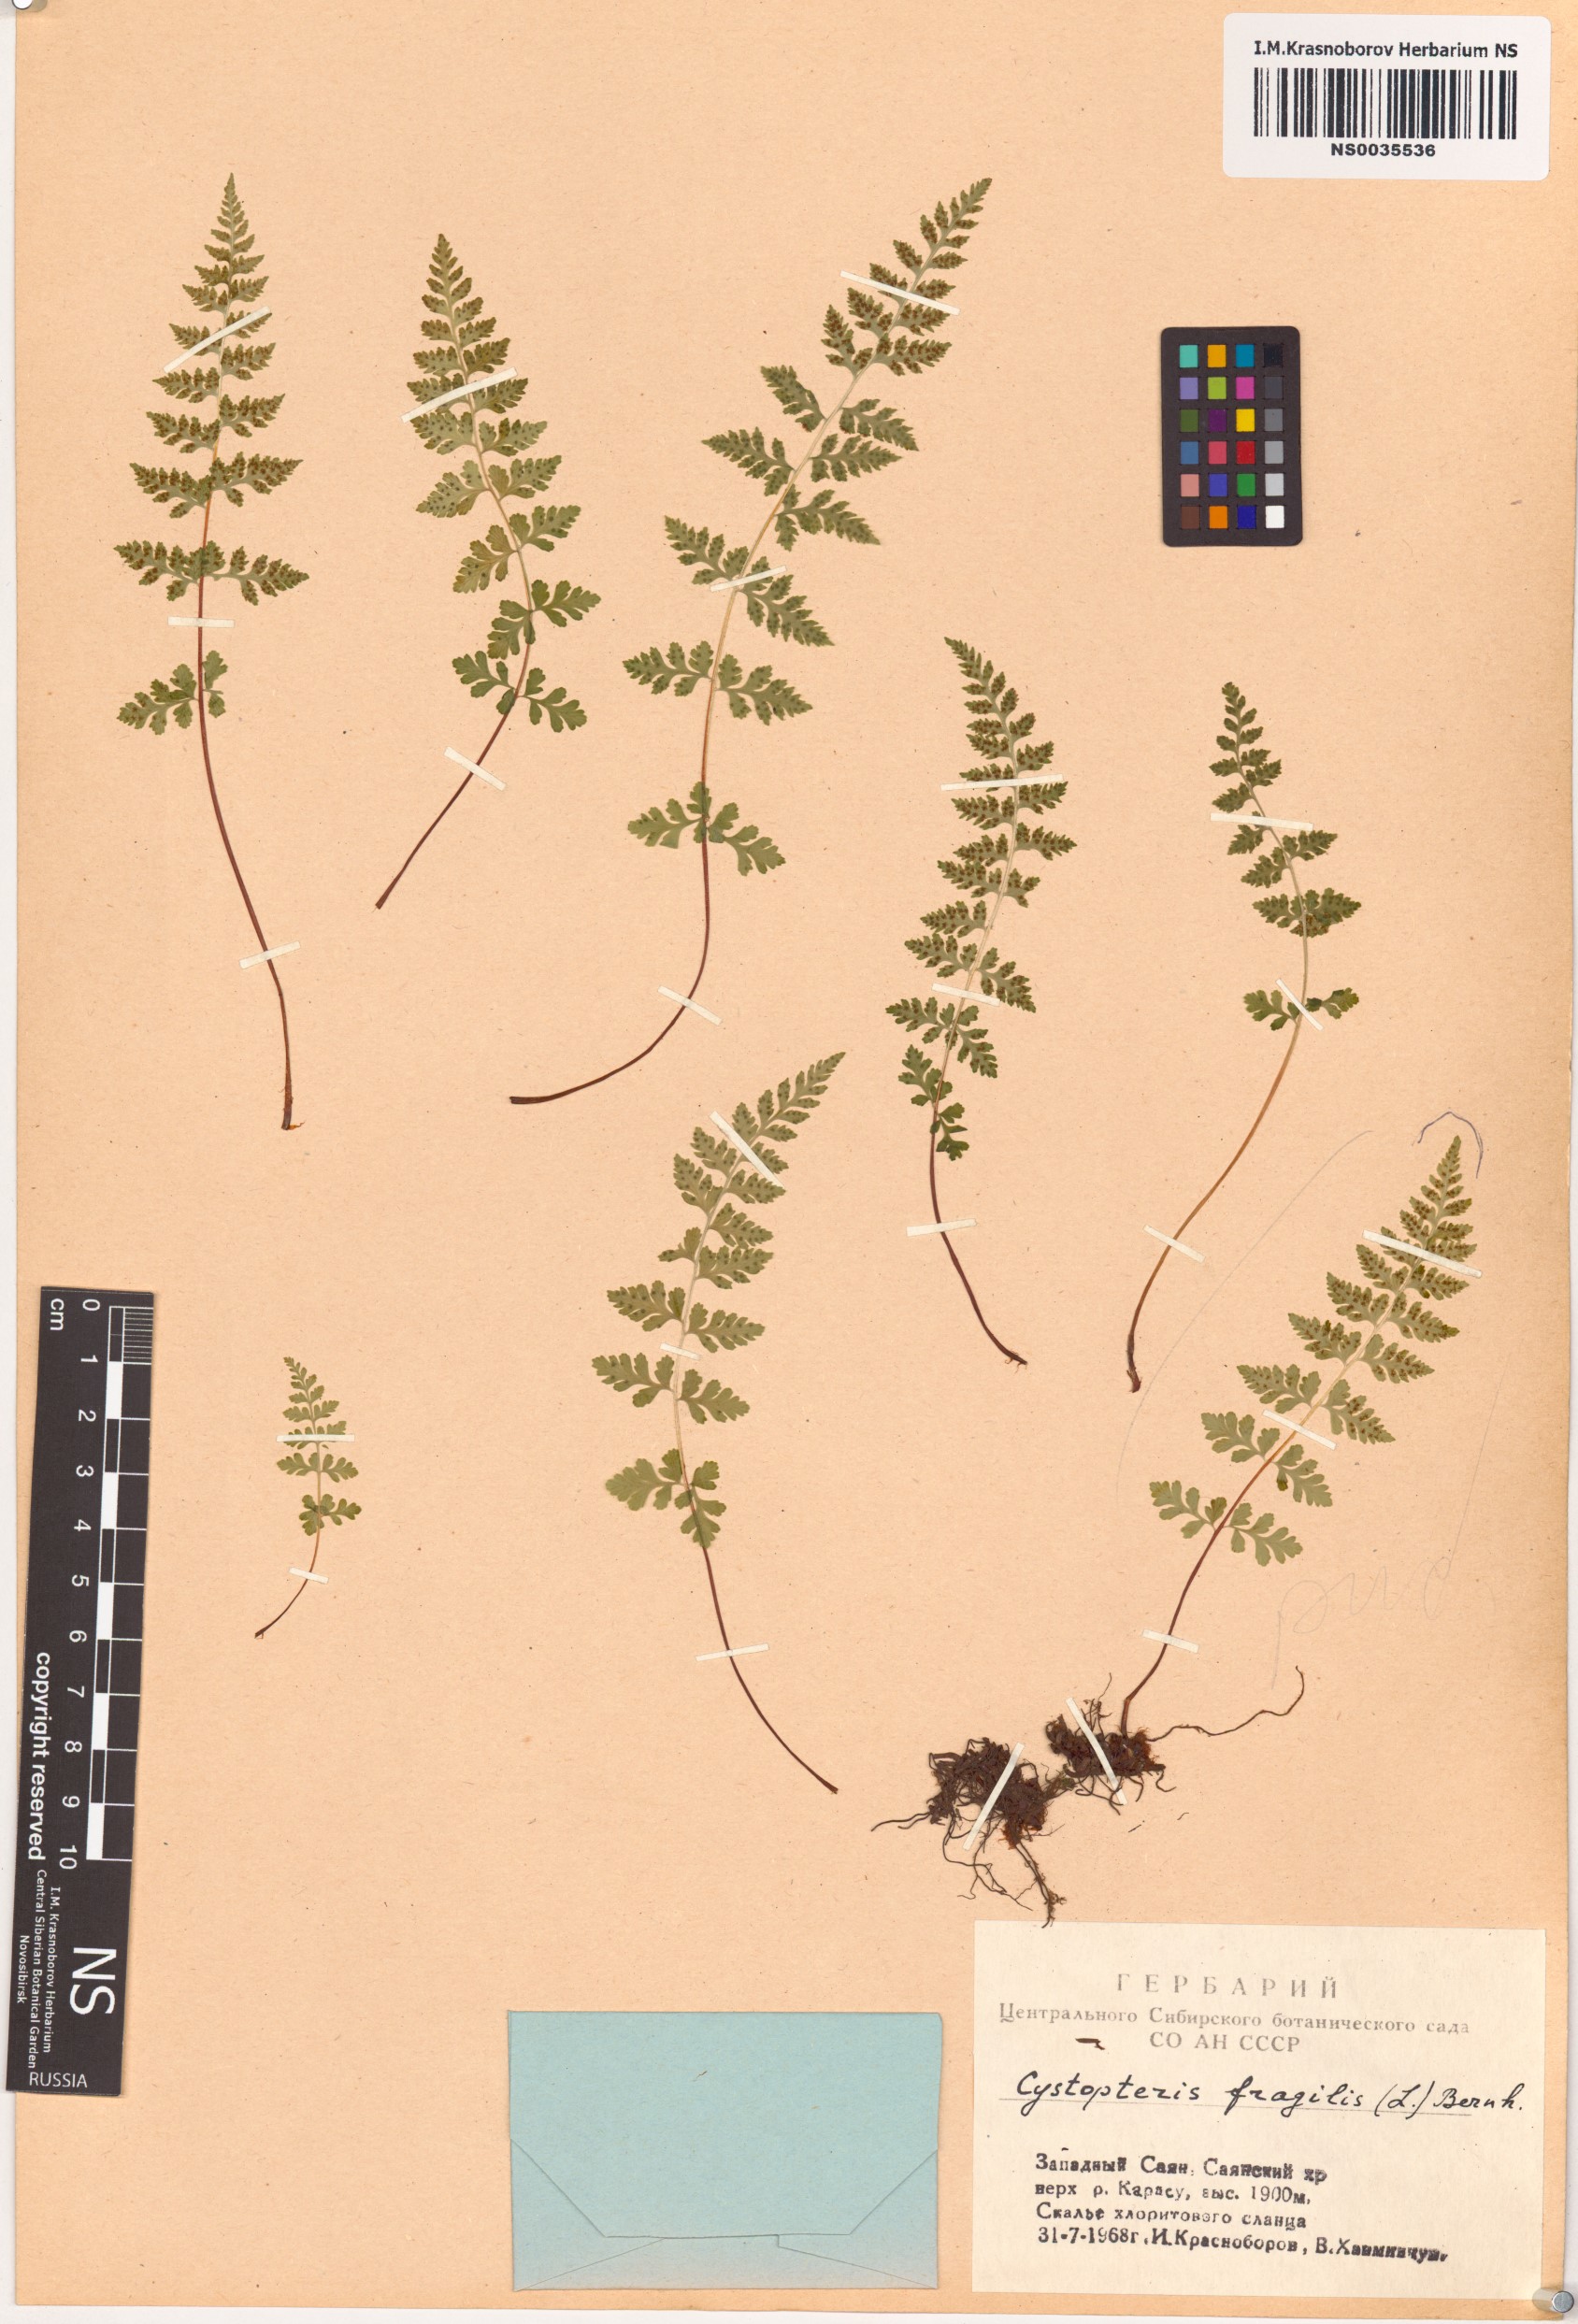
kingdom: Plantae
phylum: Tracheophyta
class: Polypodiopsida
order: Polypodiales
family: Cystopteridaceae
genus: Cystopteris
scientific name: Cystopteris fragilis
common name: Brittle bladder fern
